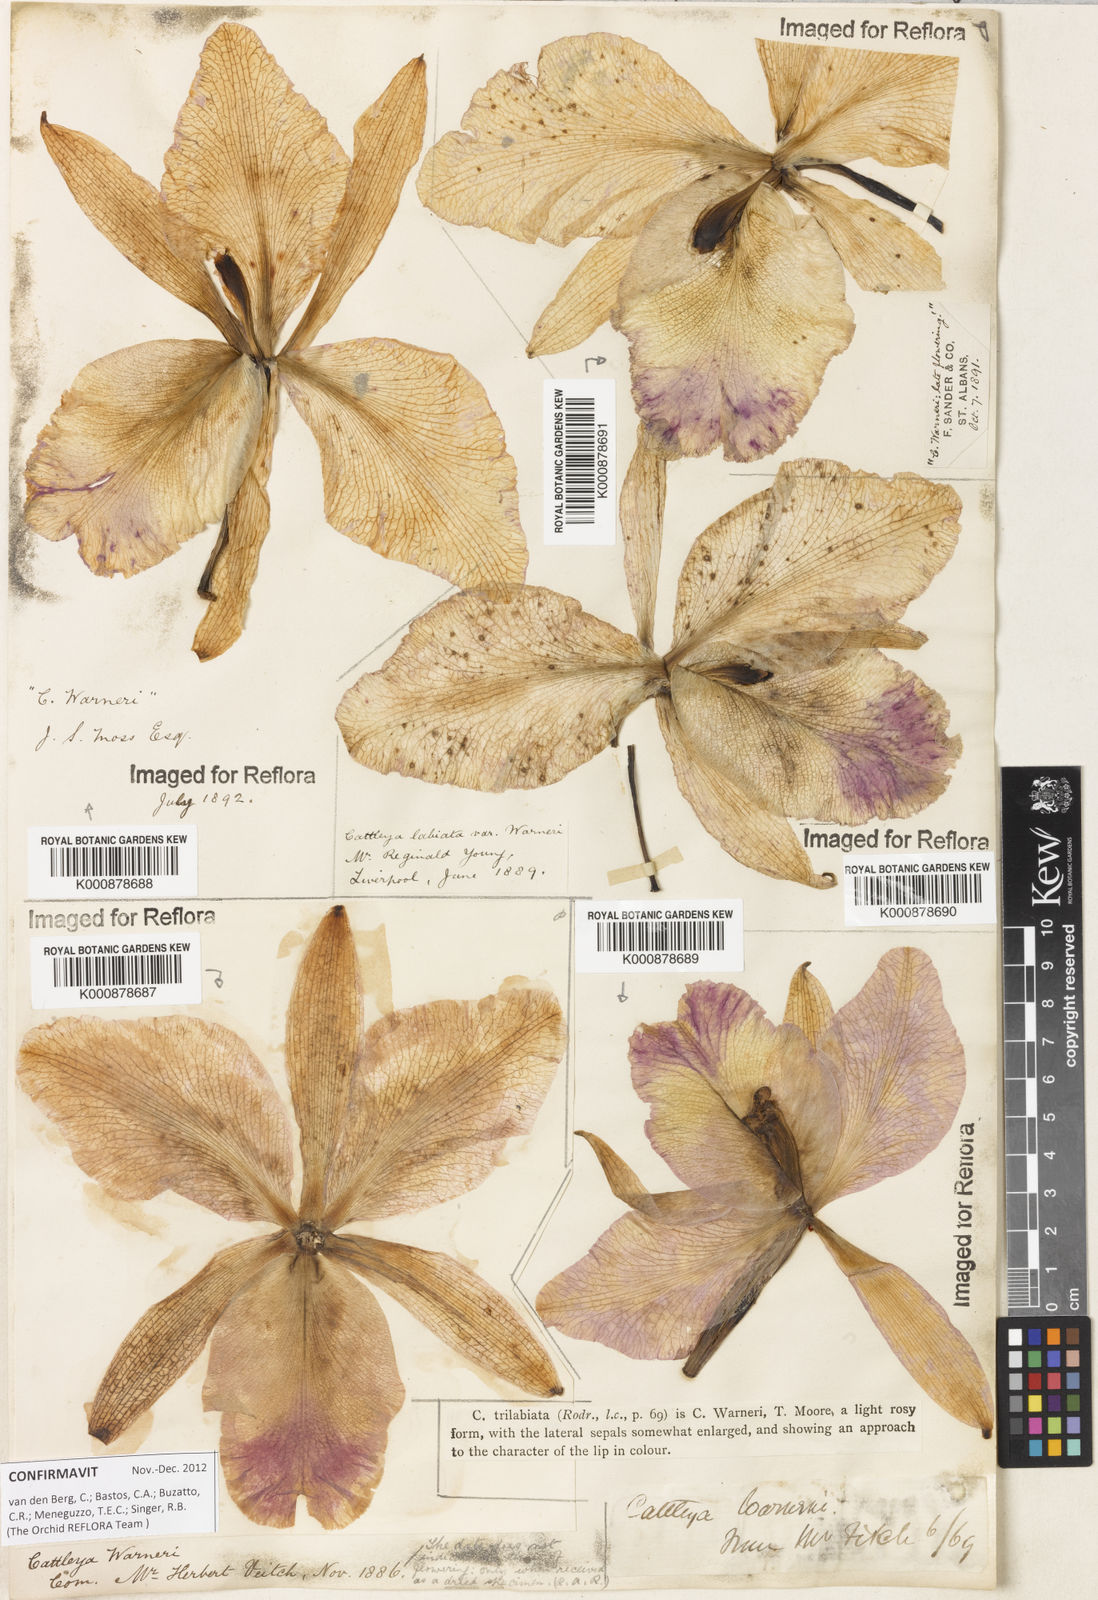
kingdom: Plantae
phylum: Tracheophyta
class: Liliopsida
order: Asparagales
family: Orchidaceae
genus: Cattleya
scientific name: Cattleya
